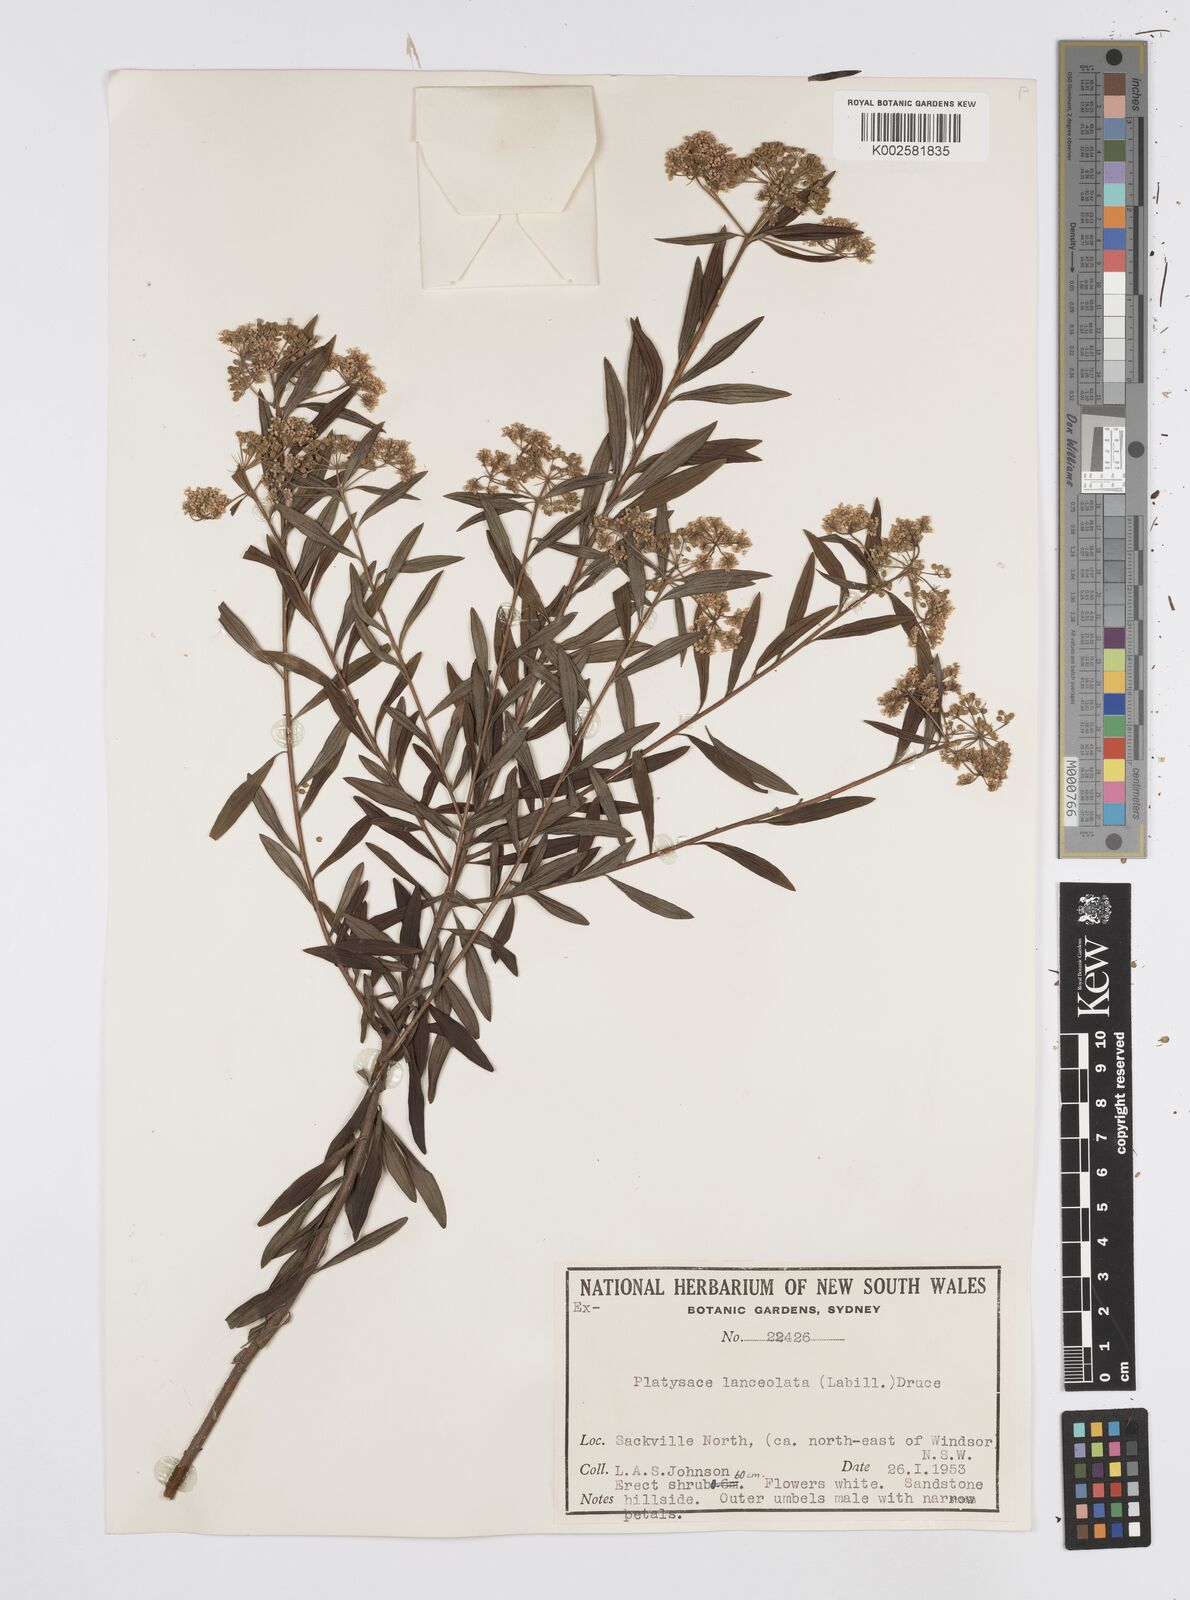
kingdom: Plantae
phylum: Tracheophyta
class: Magnoliopsida
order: Apiales
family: Apiaceae
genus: Platysace
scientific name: Platysace lanceolata
